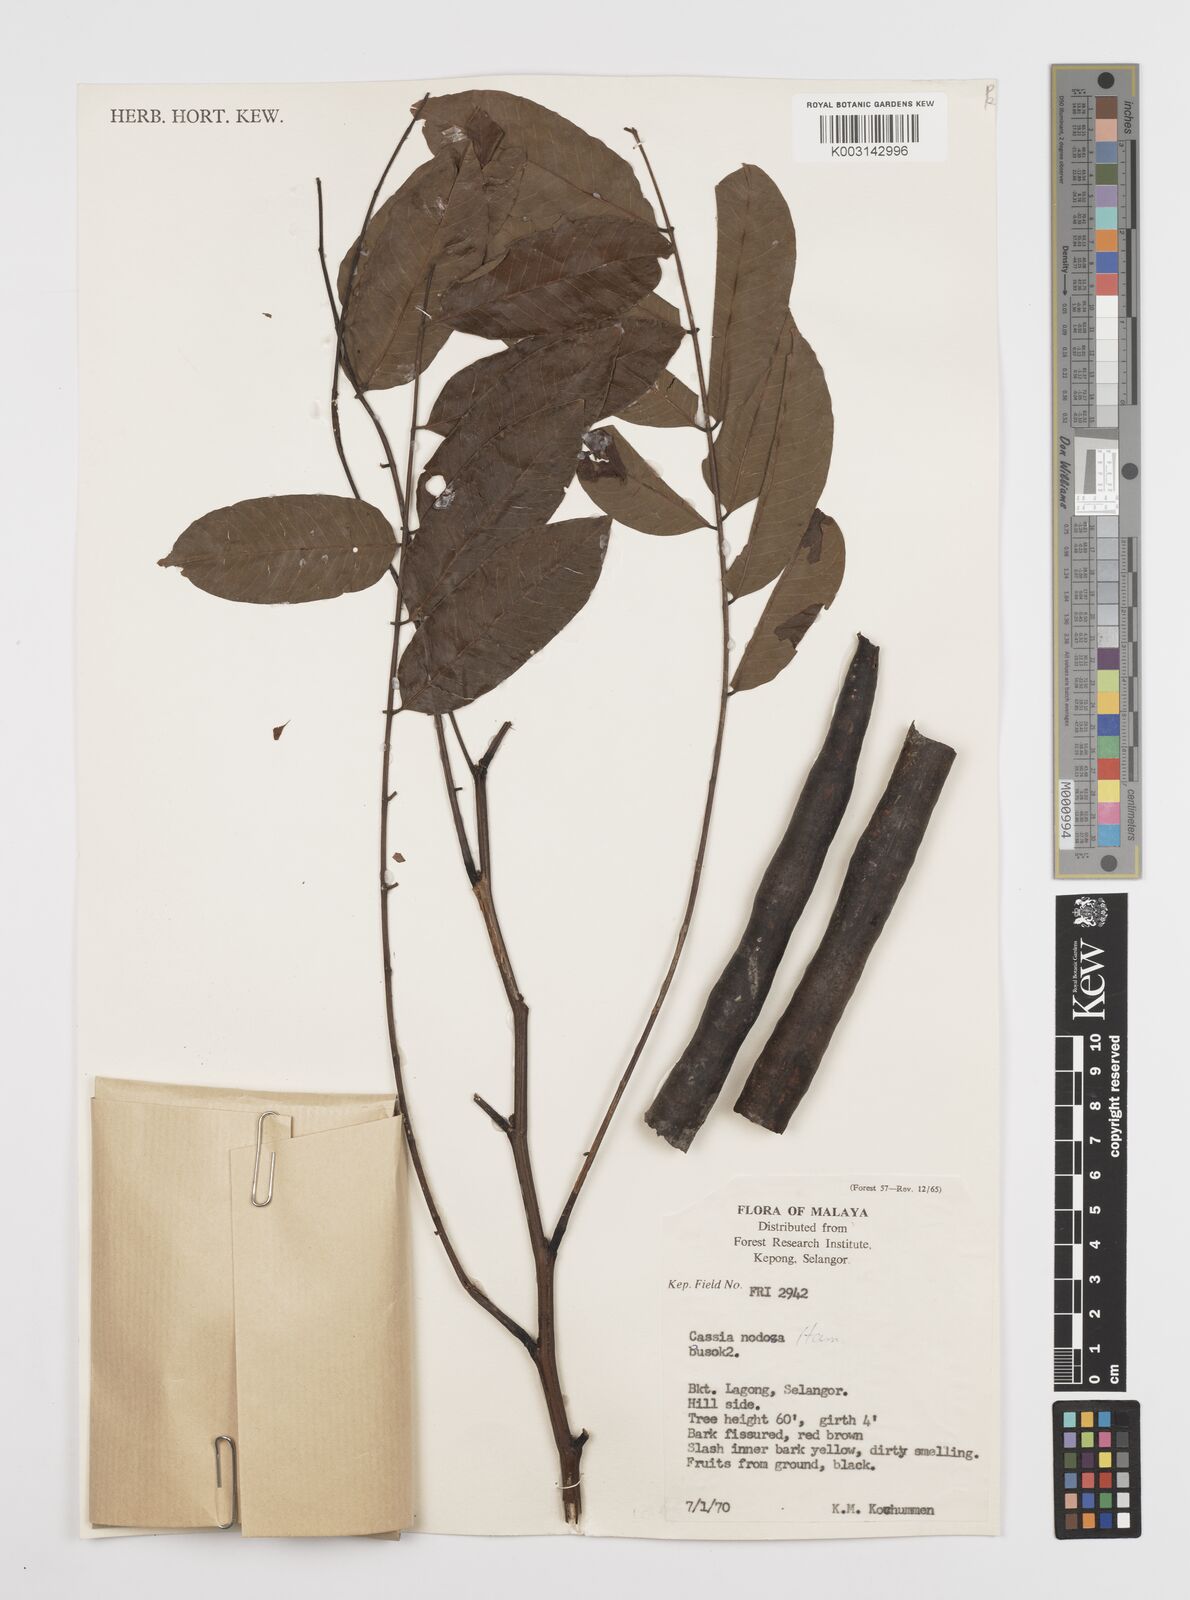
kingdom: Plantae
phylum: Tracheophyta
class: Magnoliopsida
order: Fabales
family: Fabaceae
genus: Cassia
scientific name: Cassia javanica
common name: Apple blossom
